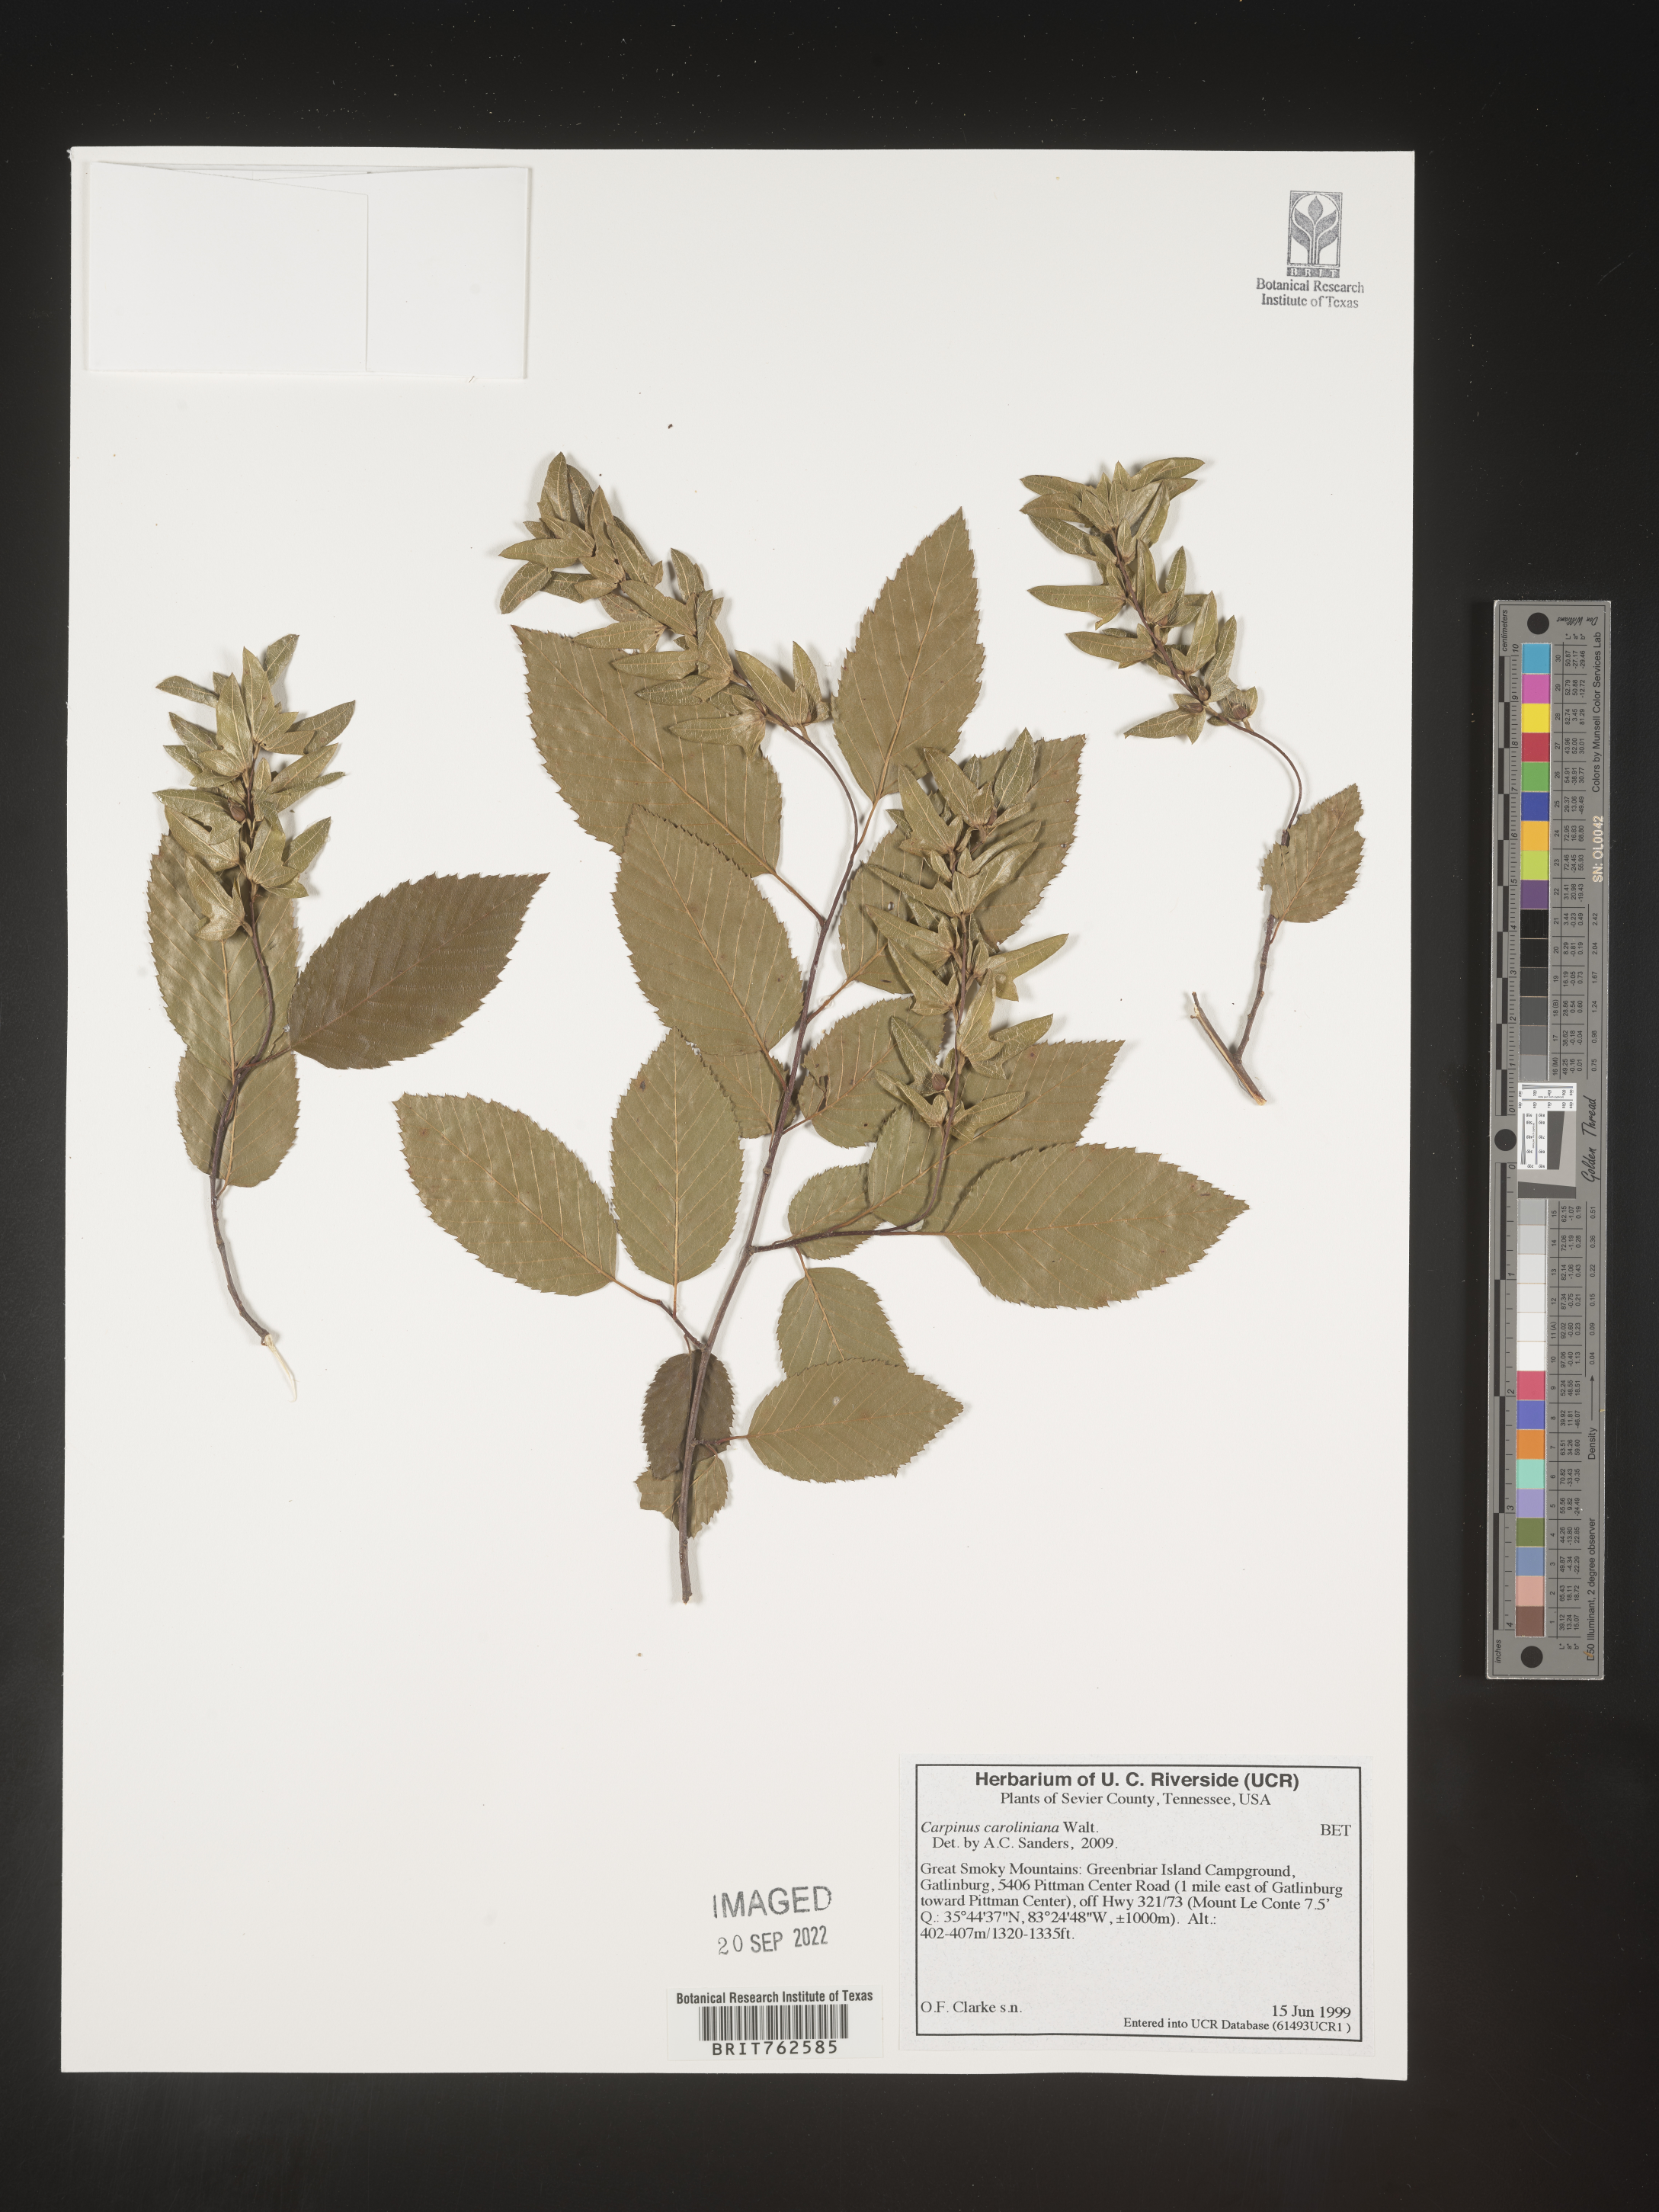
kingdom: Plantae
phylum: Tracheophyta
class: Magnoliopsida
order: Fagales
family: Betulaceae
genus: Carpinus
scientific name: Carpinus caroliniana
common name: American hornbeam
